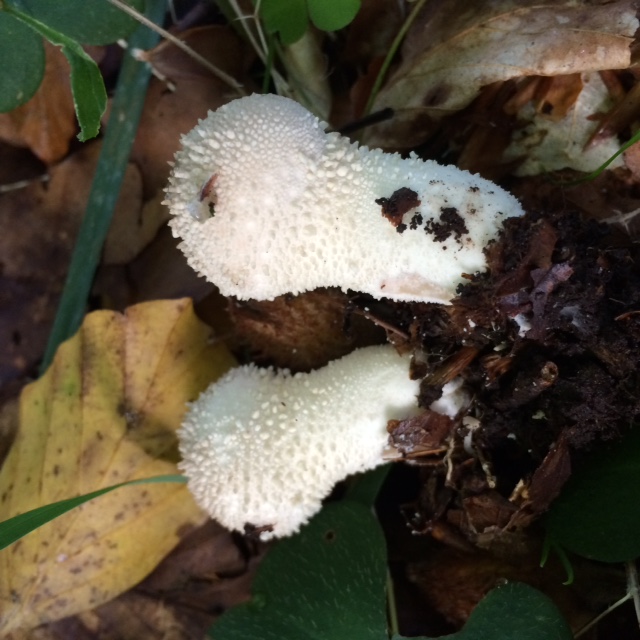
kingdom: Fungi
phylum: Basidiomycota
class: Agaricomycetes
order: Agaricales
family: Lycoperdaceae
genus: Lycoperdon
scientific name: Lycoperdon perlatum
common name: krystal-støvbold
